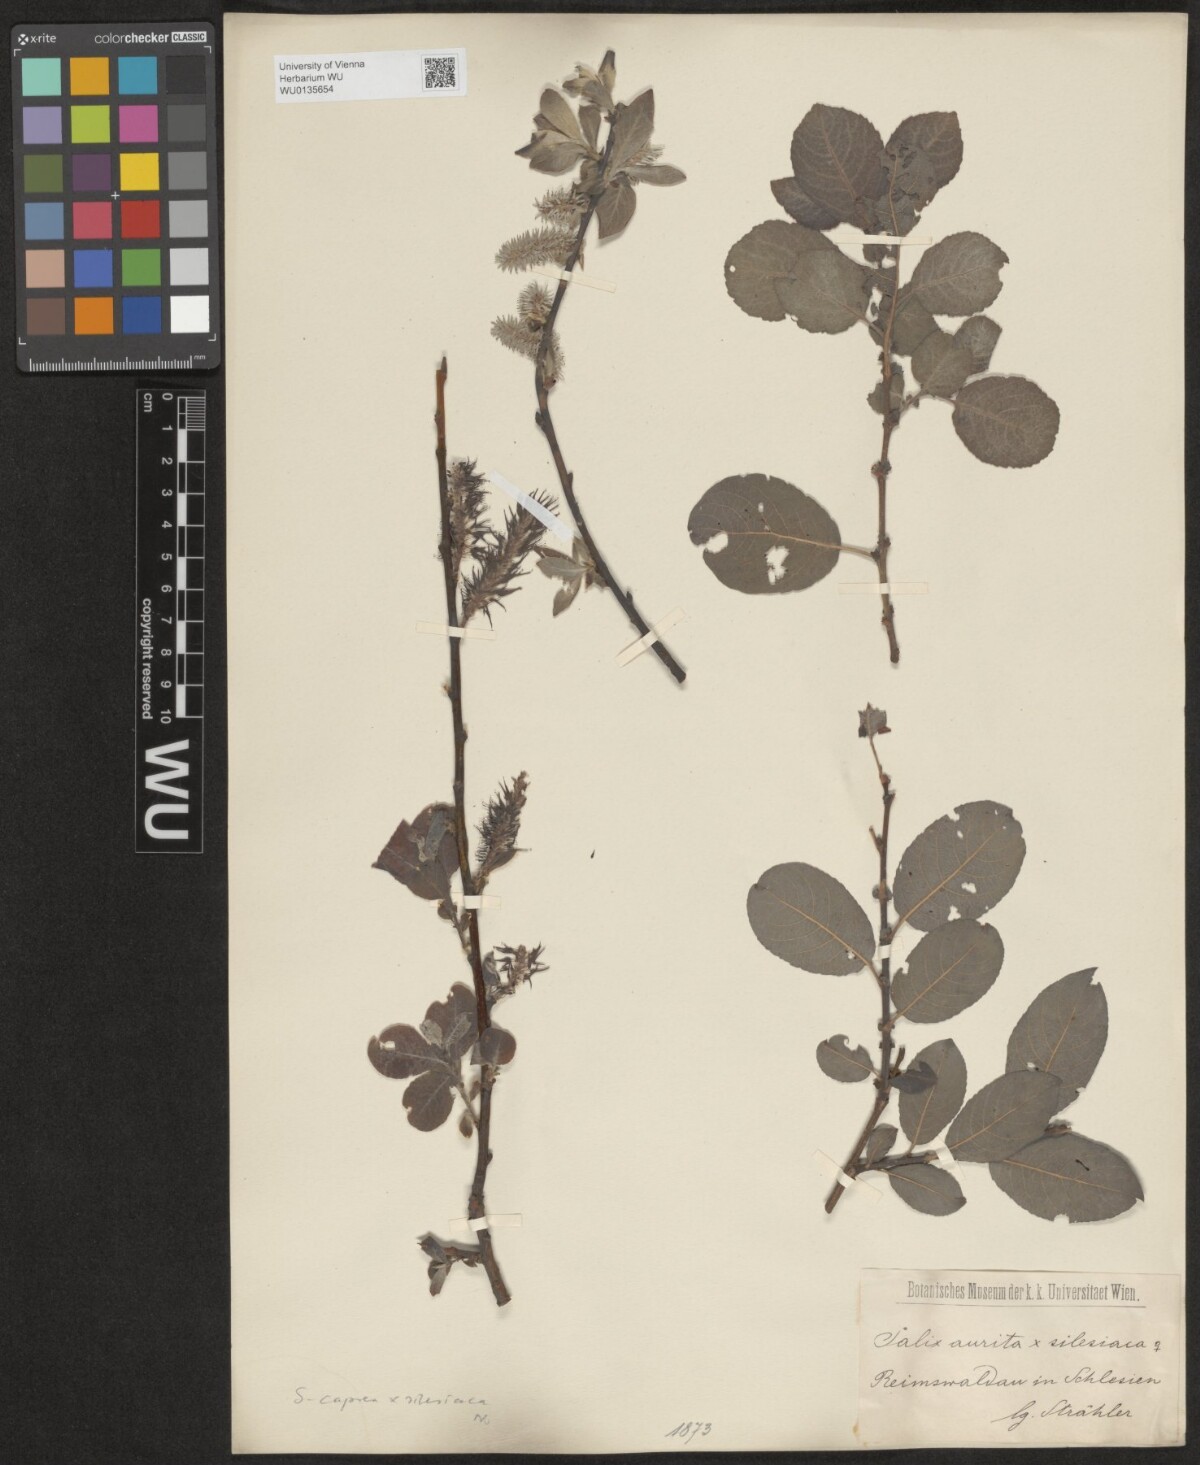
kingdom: Plantae
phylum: Tracheophyta
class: Magnoliopsida
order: Malpighiales
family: Salicaceae
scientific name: Salicaceae
